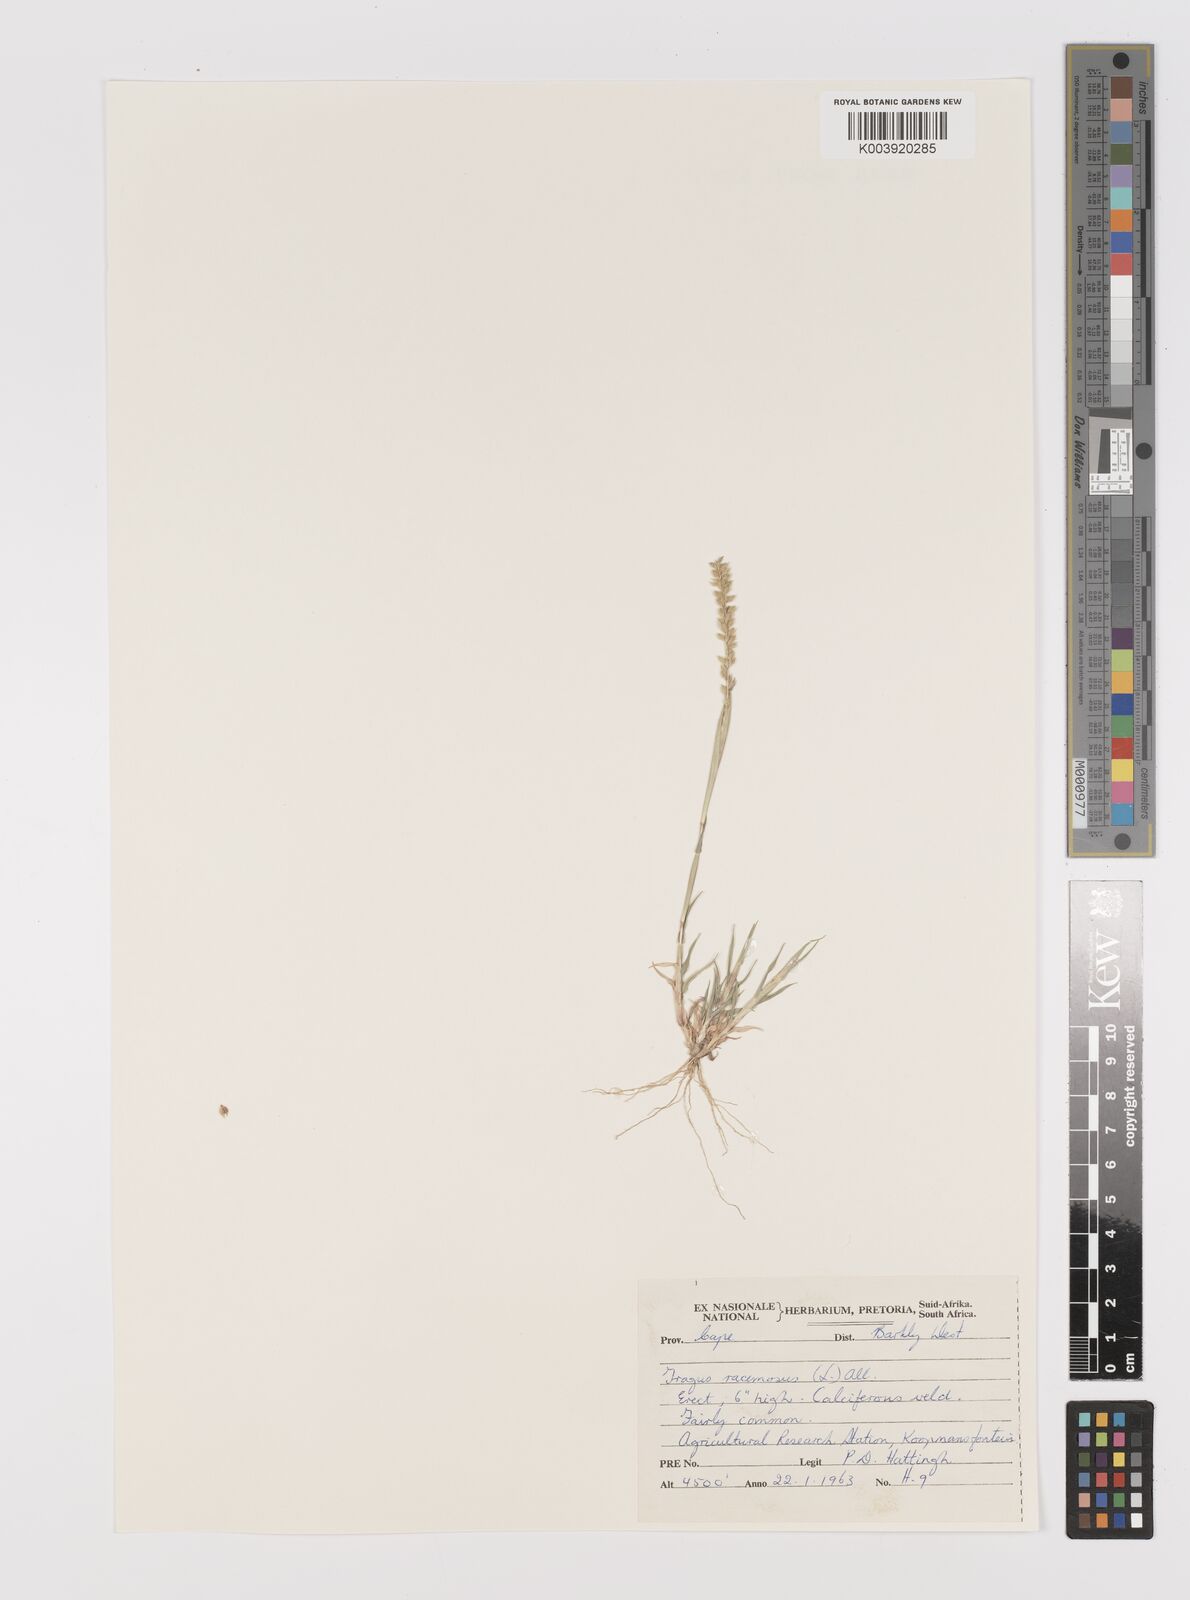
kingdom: Plantae
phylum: Tracheophyta
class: Liliopsida
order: Poales
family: Poaceae
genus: Tragus
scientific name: Tragus racemosus
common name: European bur-grass
